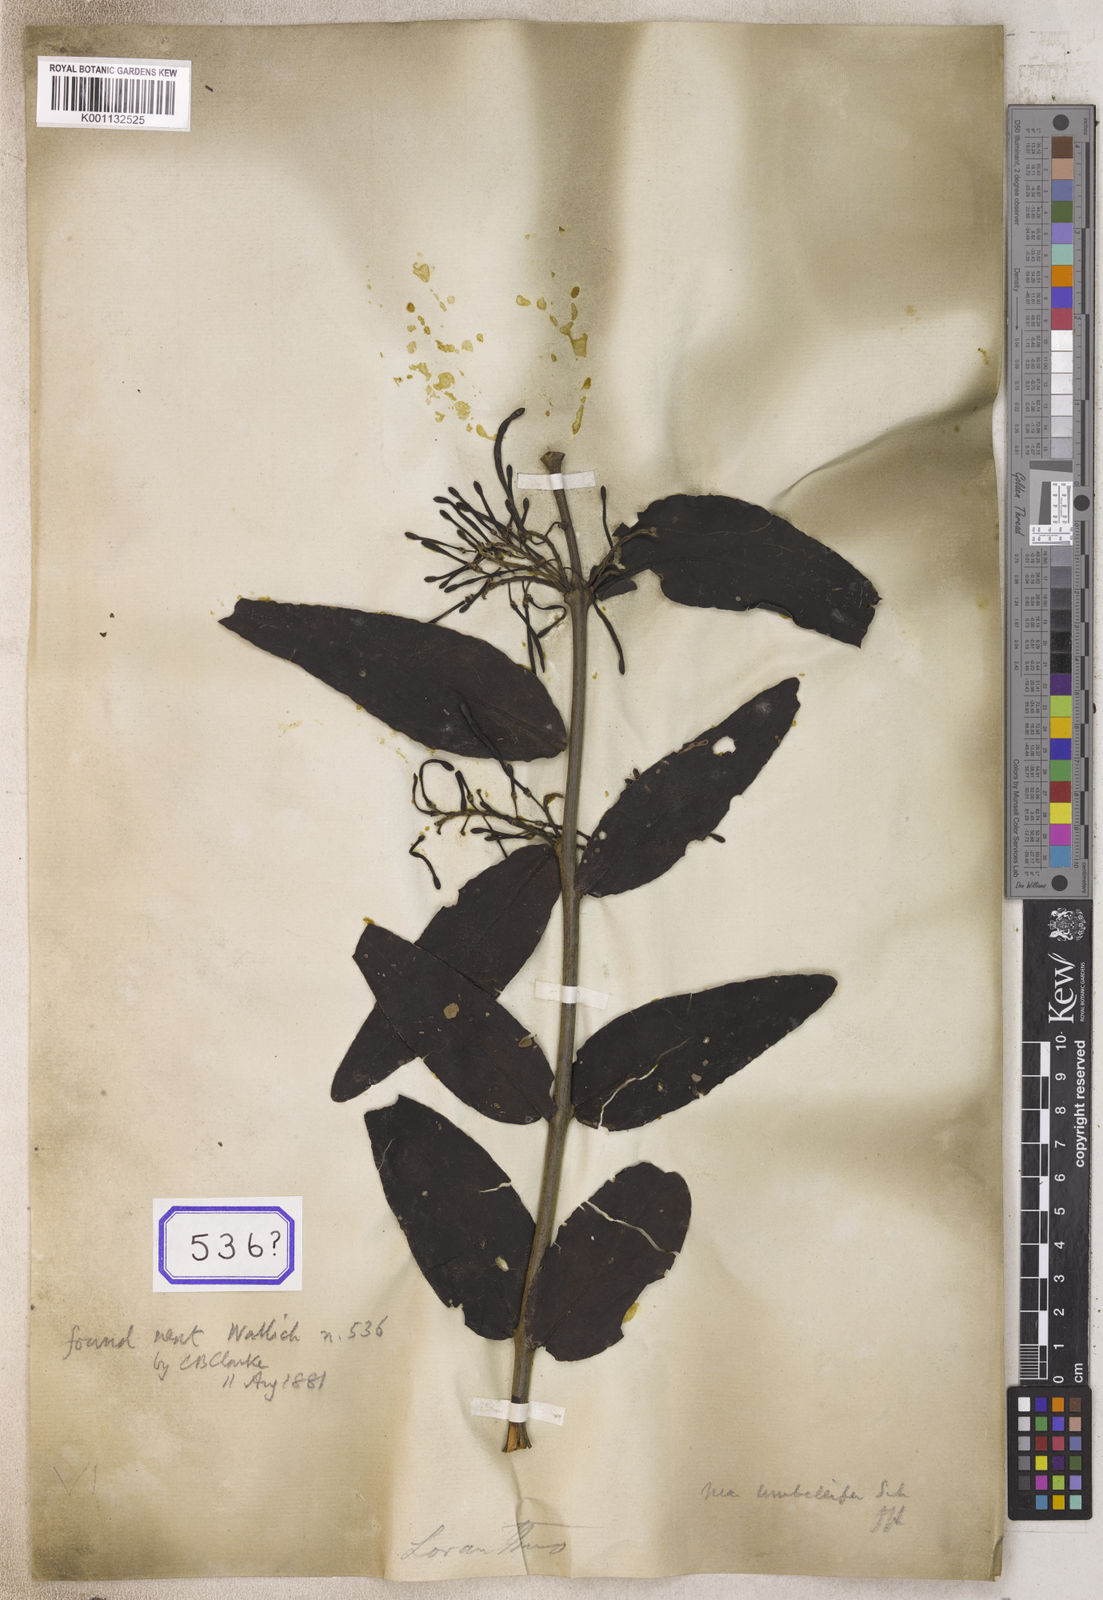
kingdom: Plantae
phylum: Tracheophyta
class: Magnoliopsida
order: Santalales
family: Loranthaceae
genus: Loranthus
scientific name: Loranthus
